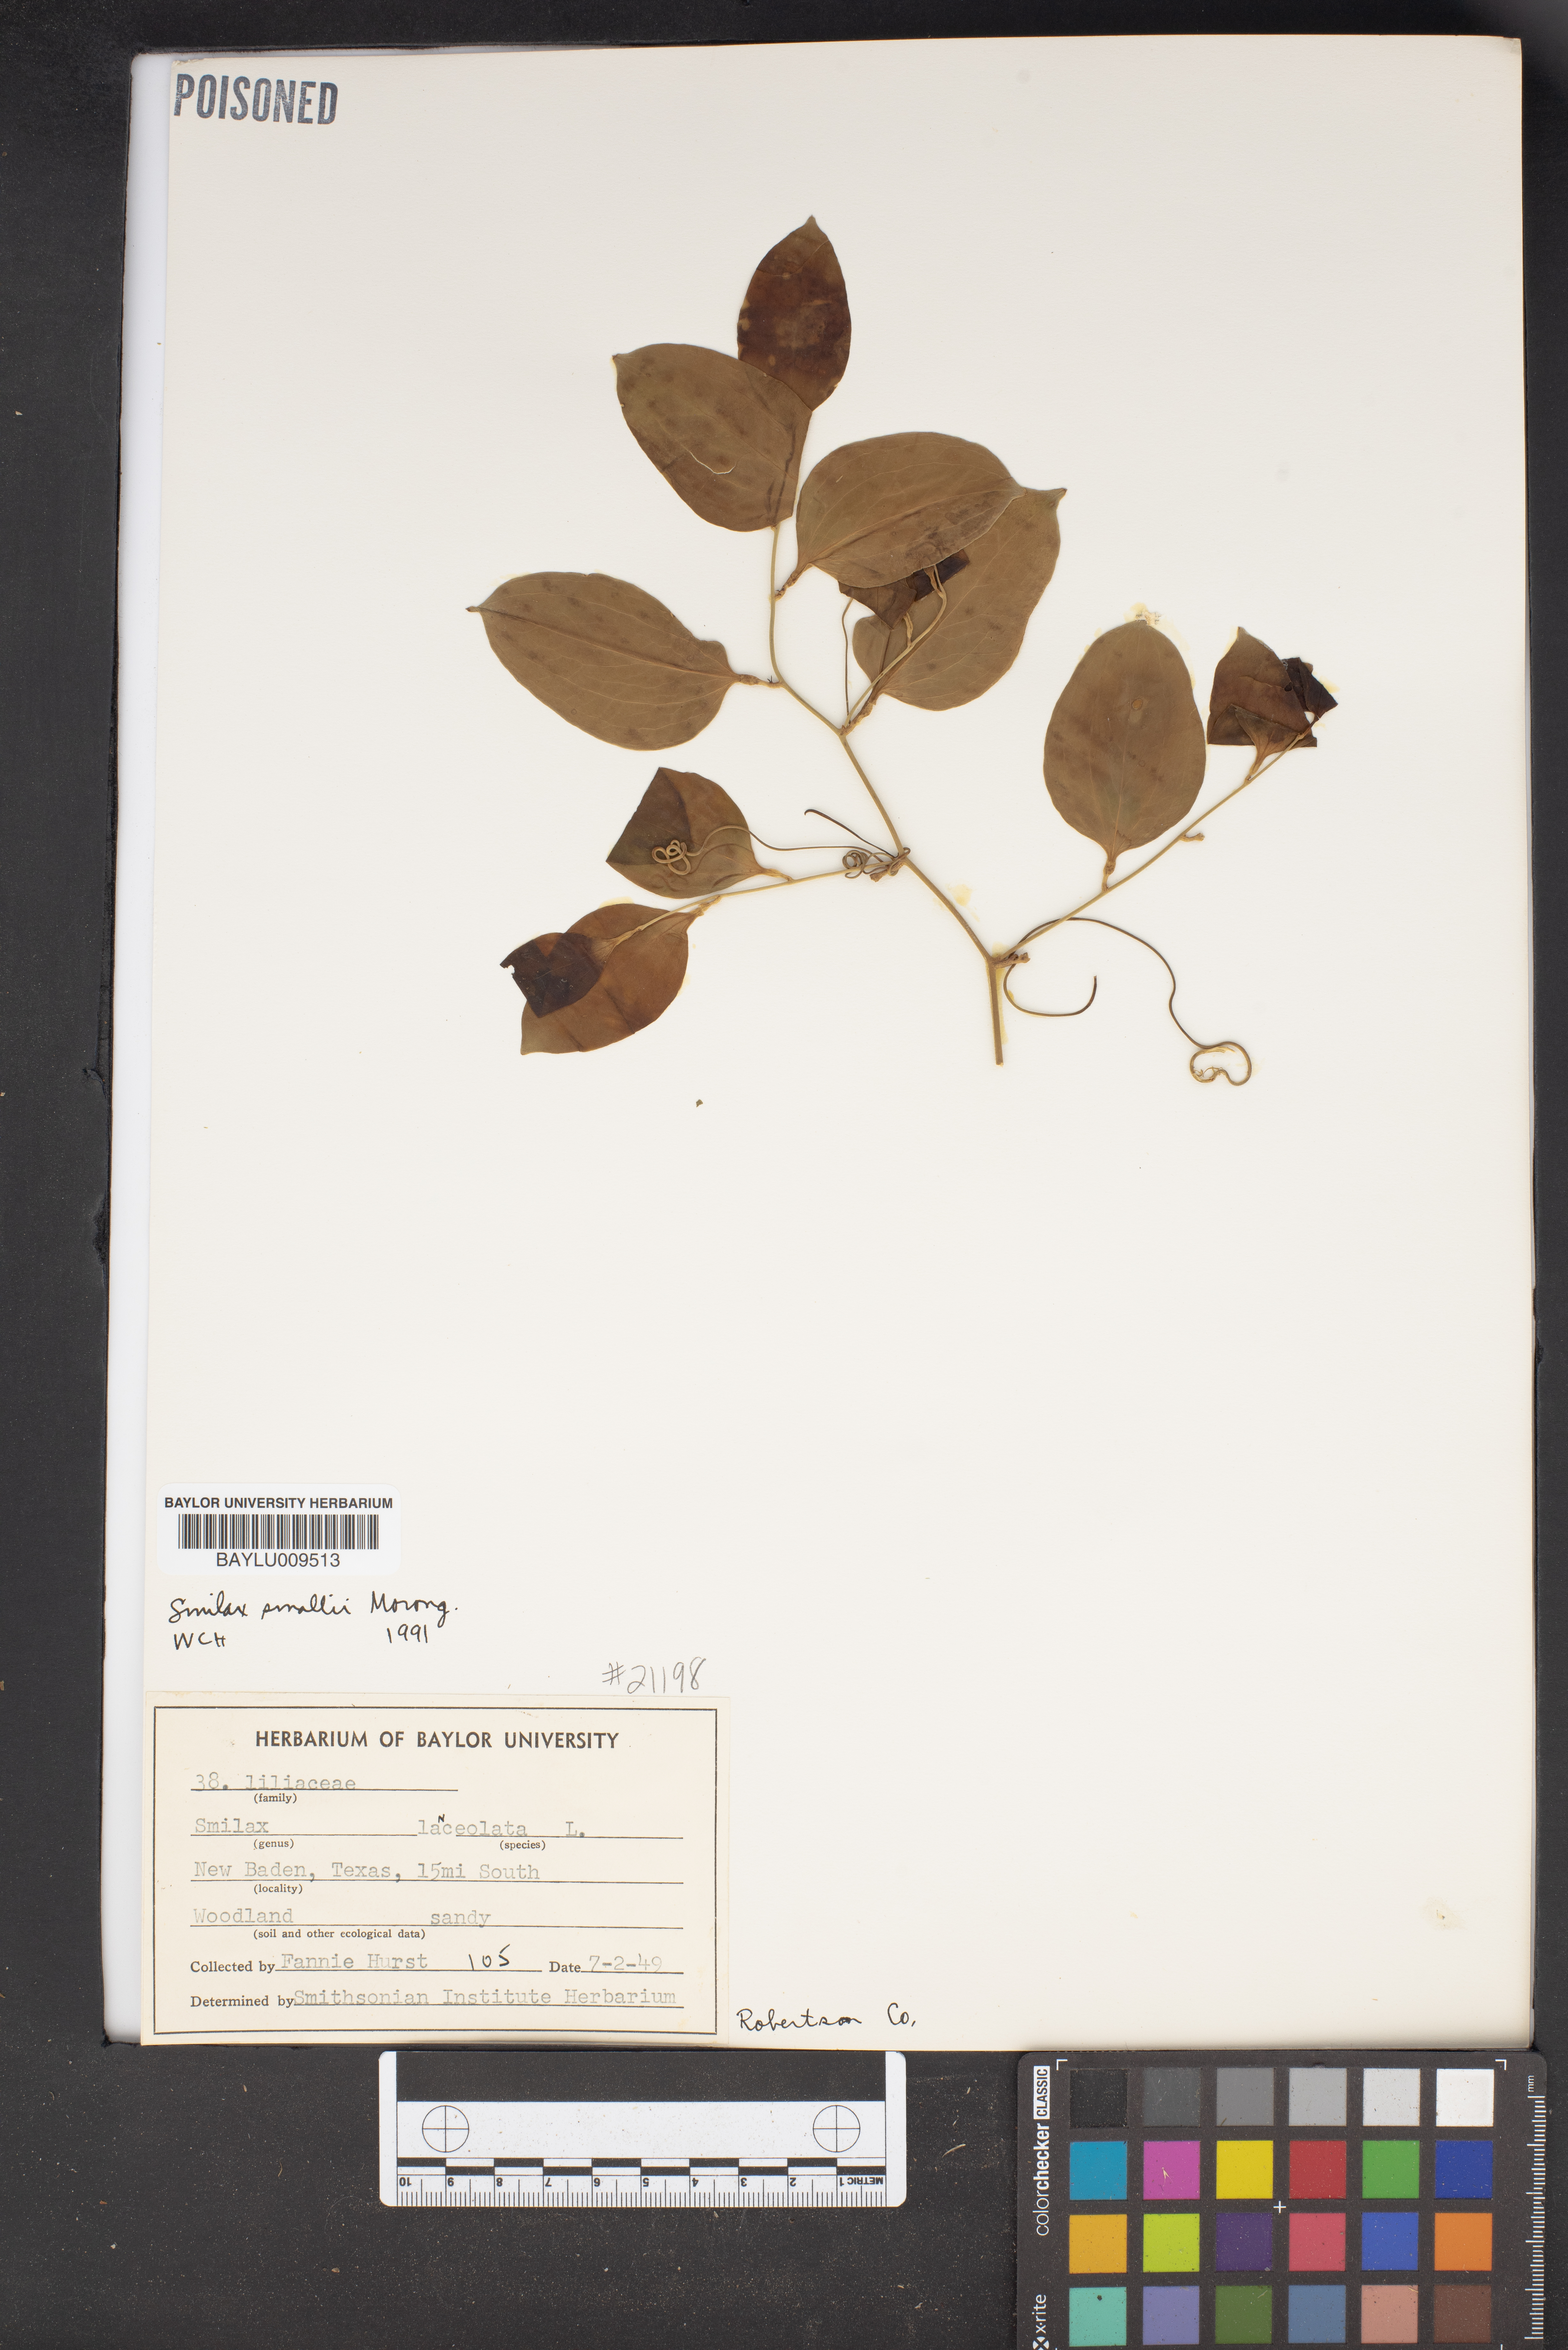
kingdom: Plantae
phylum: Tracheophyta
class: Liliopsida
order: Liliales
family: Smilacaceae
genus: Smilax
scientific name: Smilax laurifolia
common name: Bamboovine
